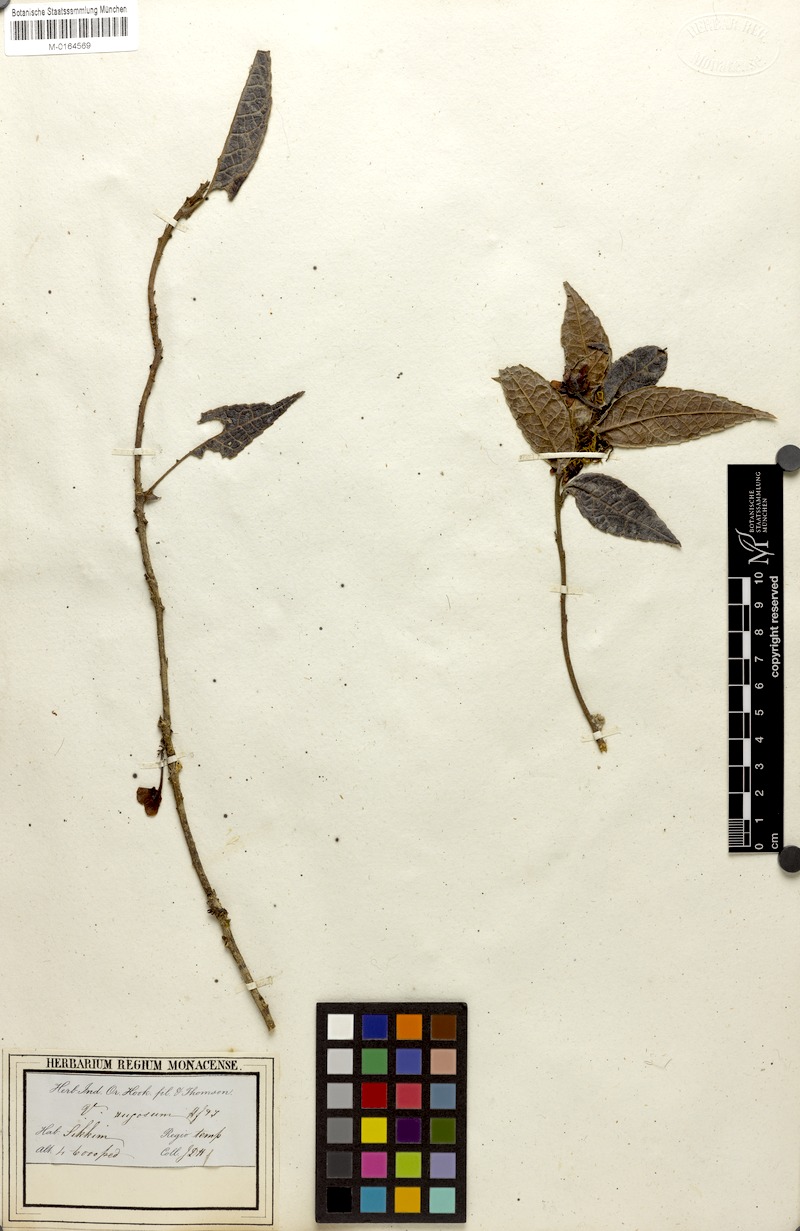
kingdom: Plantae
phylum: Tracheophyta
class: Magnoliopsida
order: Ericales
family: Ericaceae
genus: Agapetes
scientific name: Agapetes incurvata
